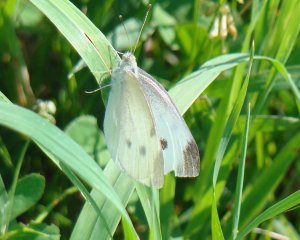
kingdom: Animalia
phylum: Arthropoda
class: Insecta
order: Lepidoptera
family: Pieridae
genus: Pieris
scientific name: Pieris rapae
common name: Cabbage White
